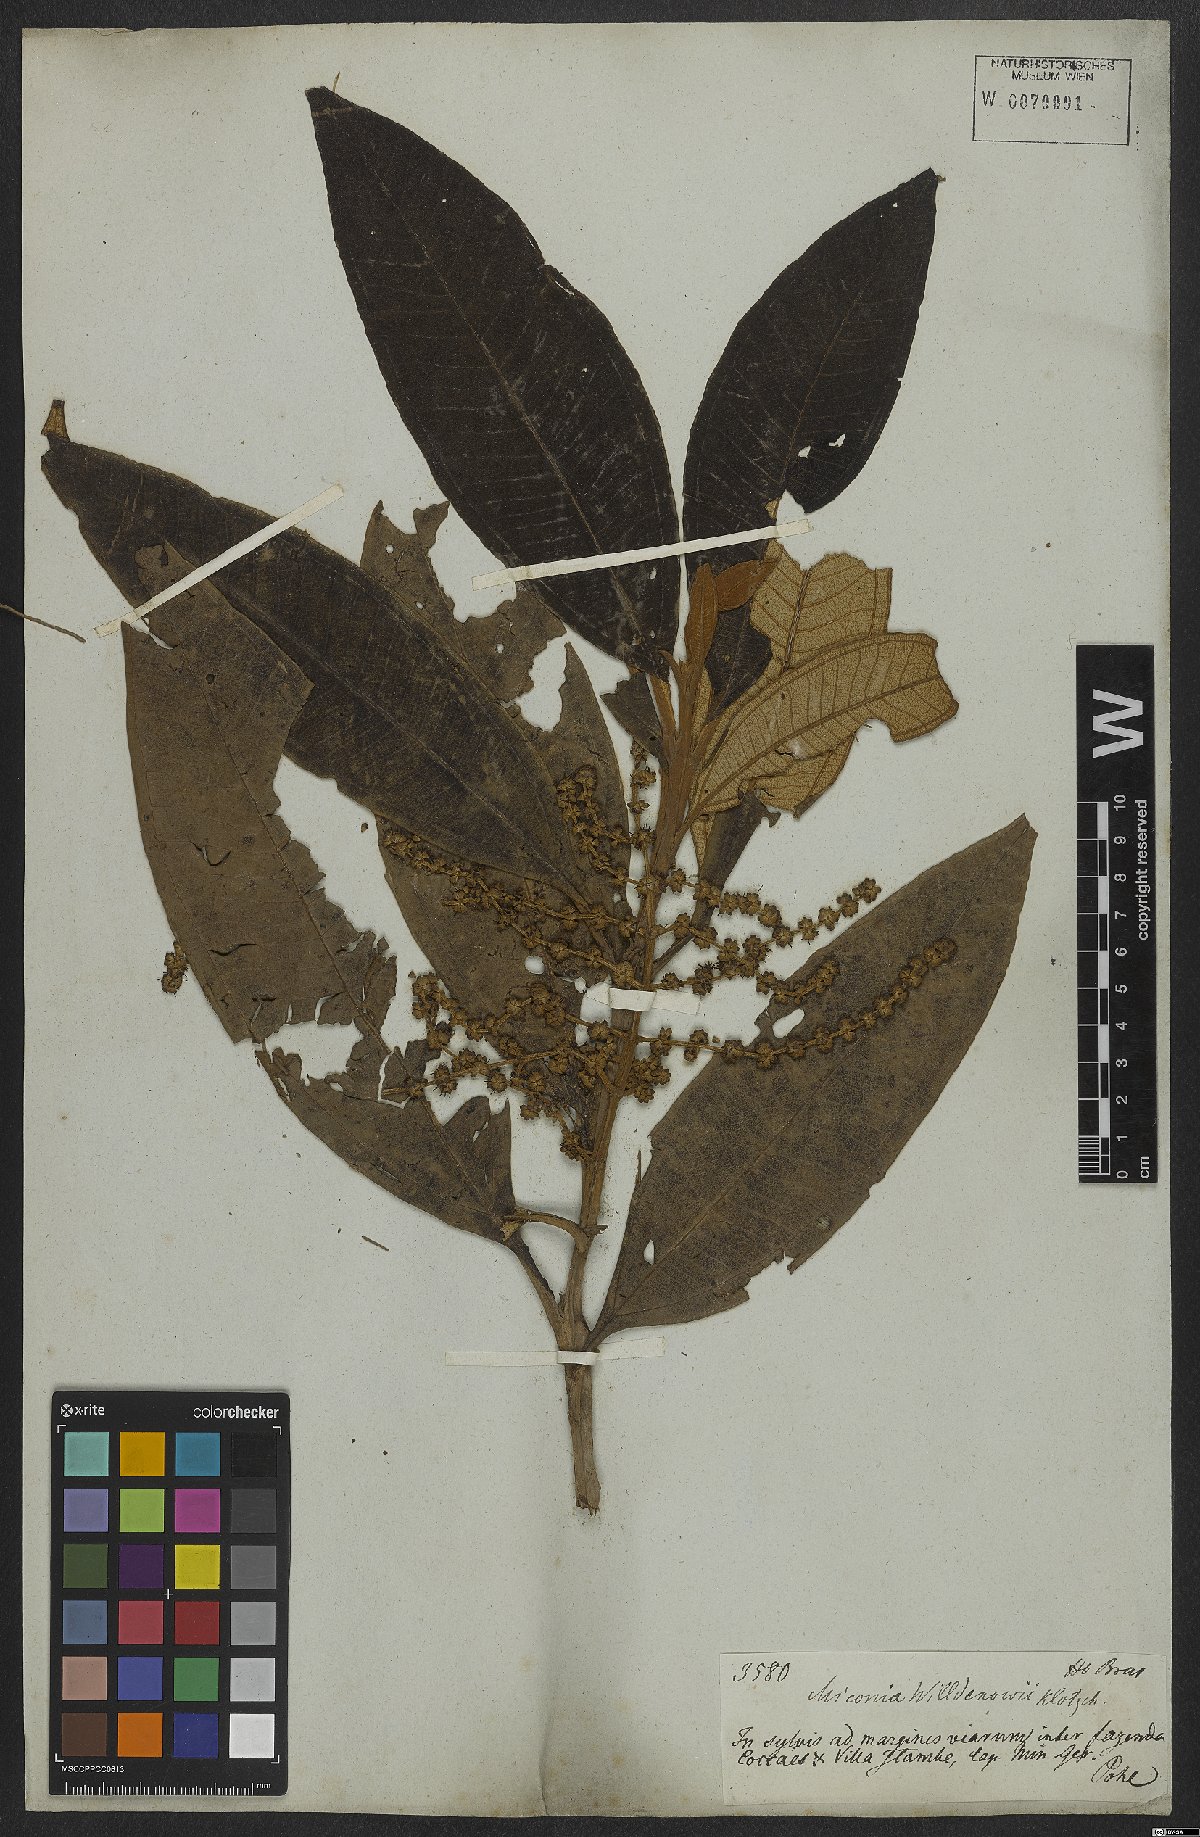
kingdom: Plantae
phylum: Tracheophyta
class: Magnoliopsida
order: Myrtales
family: Melastomataceae
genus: Miconia
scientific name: Miconia willdenowii
